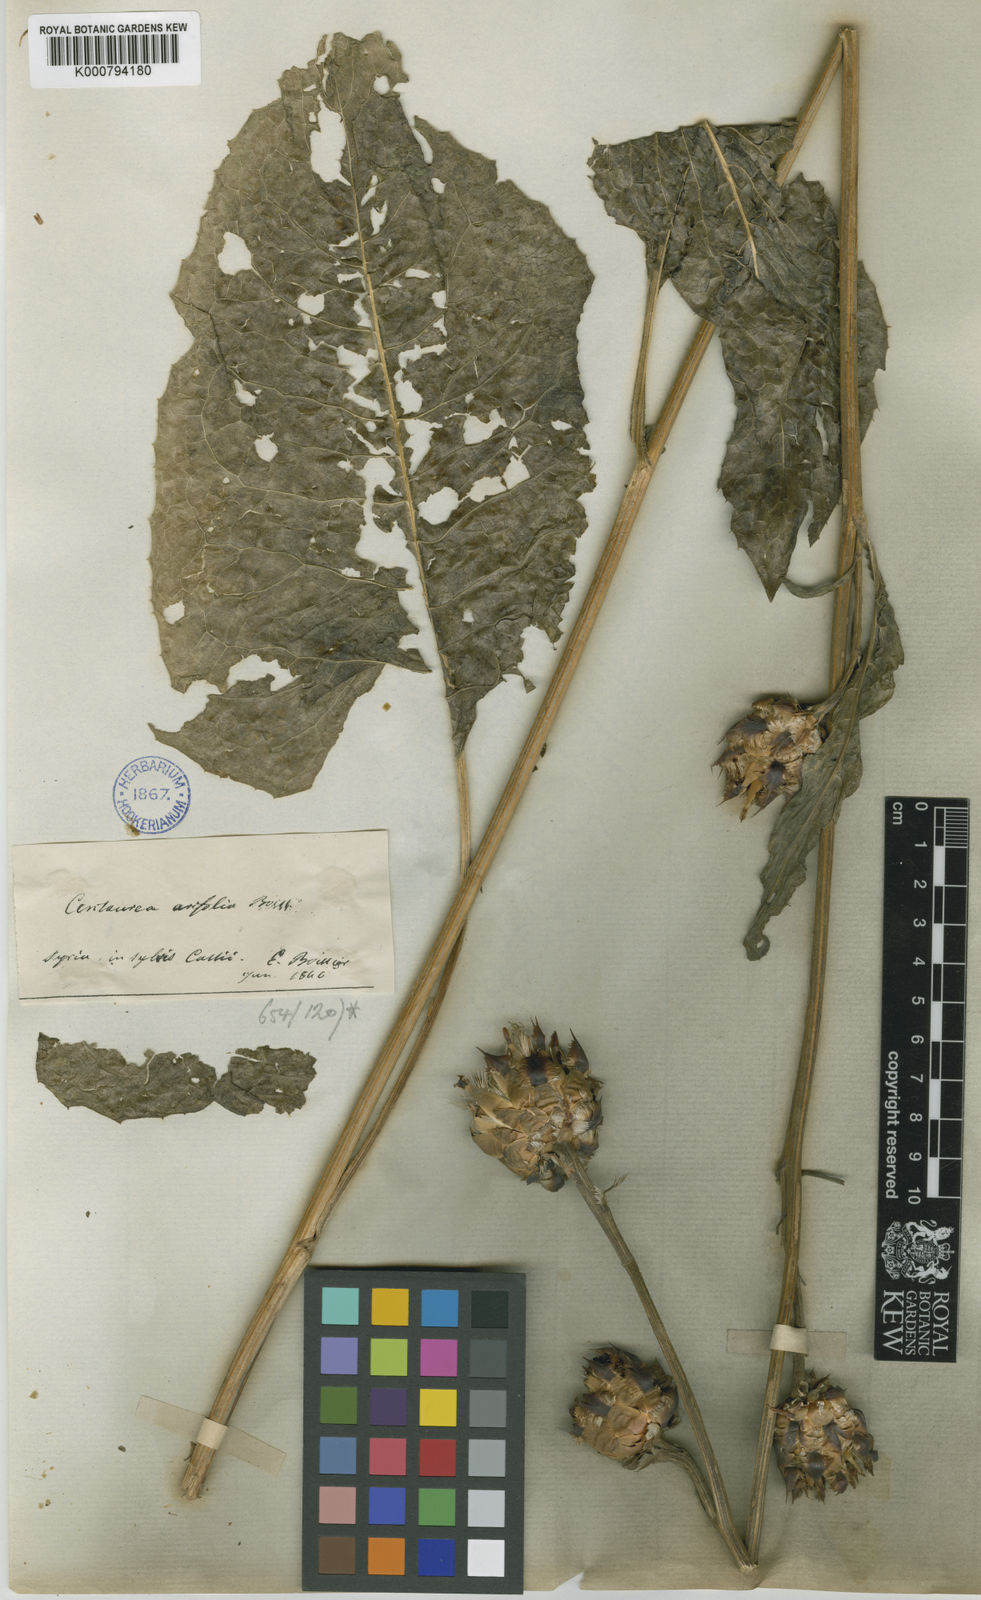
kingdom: Plantae
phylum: Tracheophyta
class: Magnoliopsida
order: Asterales
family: Asteraceae
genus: Centaurea
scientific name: Centaurea arifolia
